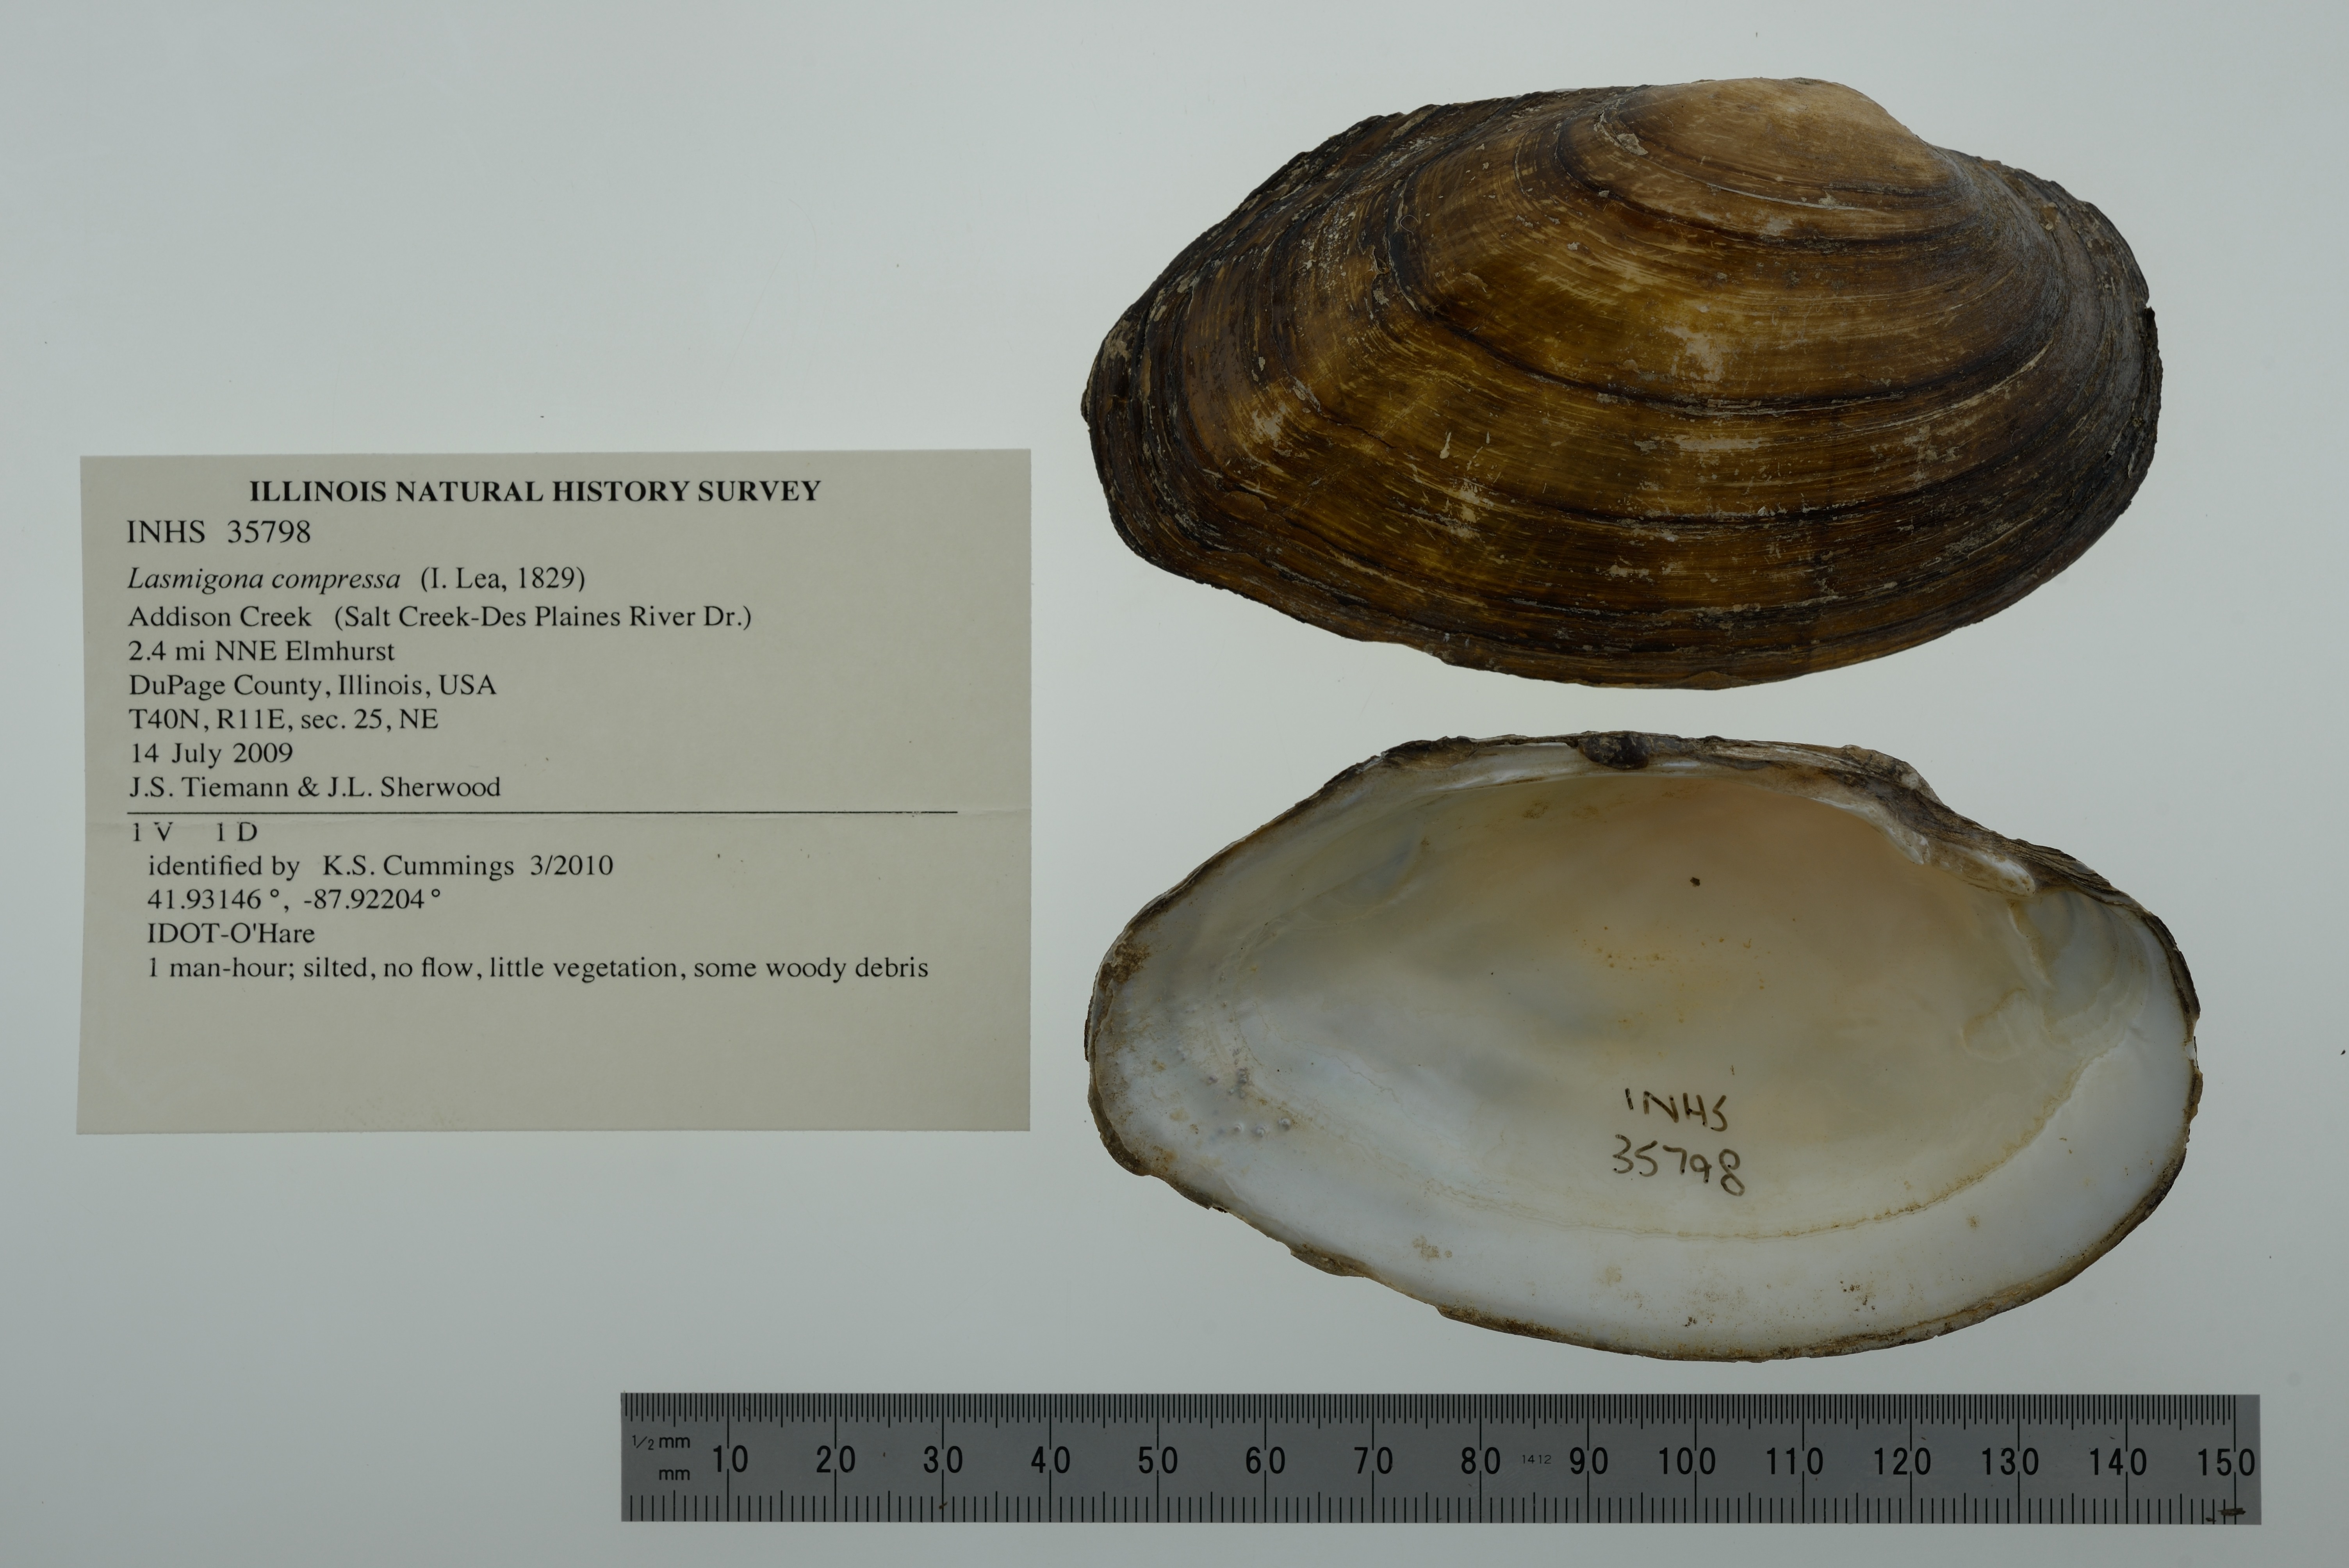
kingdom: Animalia
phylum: Mollusca
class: Bivalvia
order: Unionida
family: Unionidae
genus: Lasmigona
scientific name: Lasmigona compressa
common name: Creek heelsplitter
